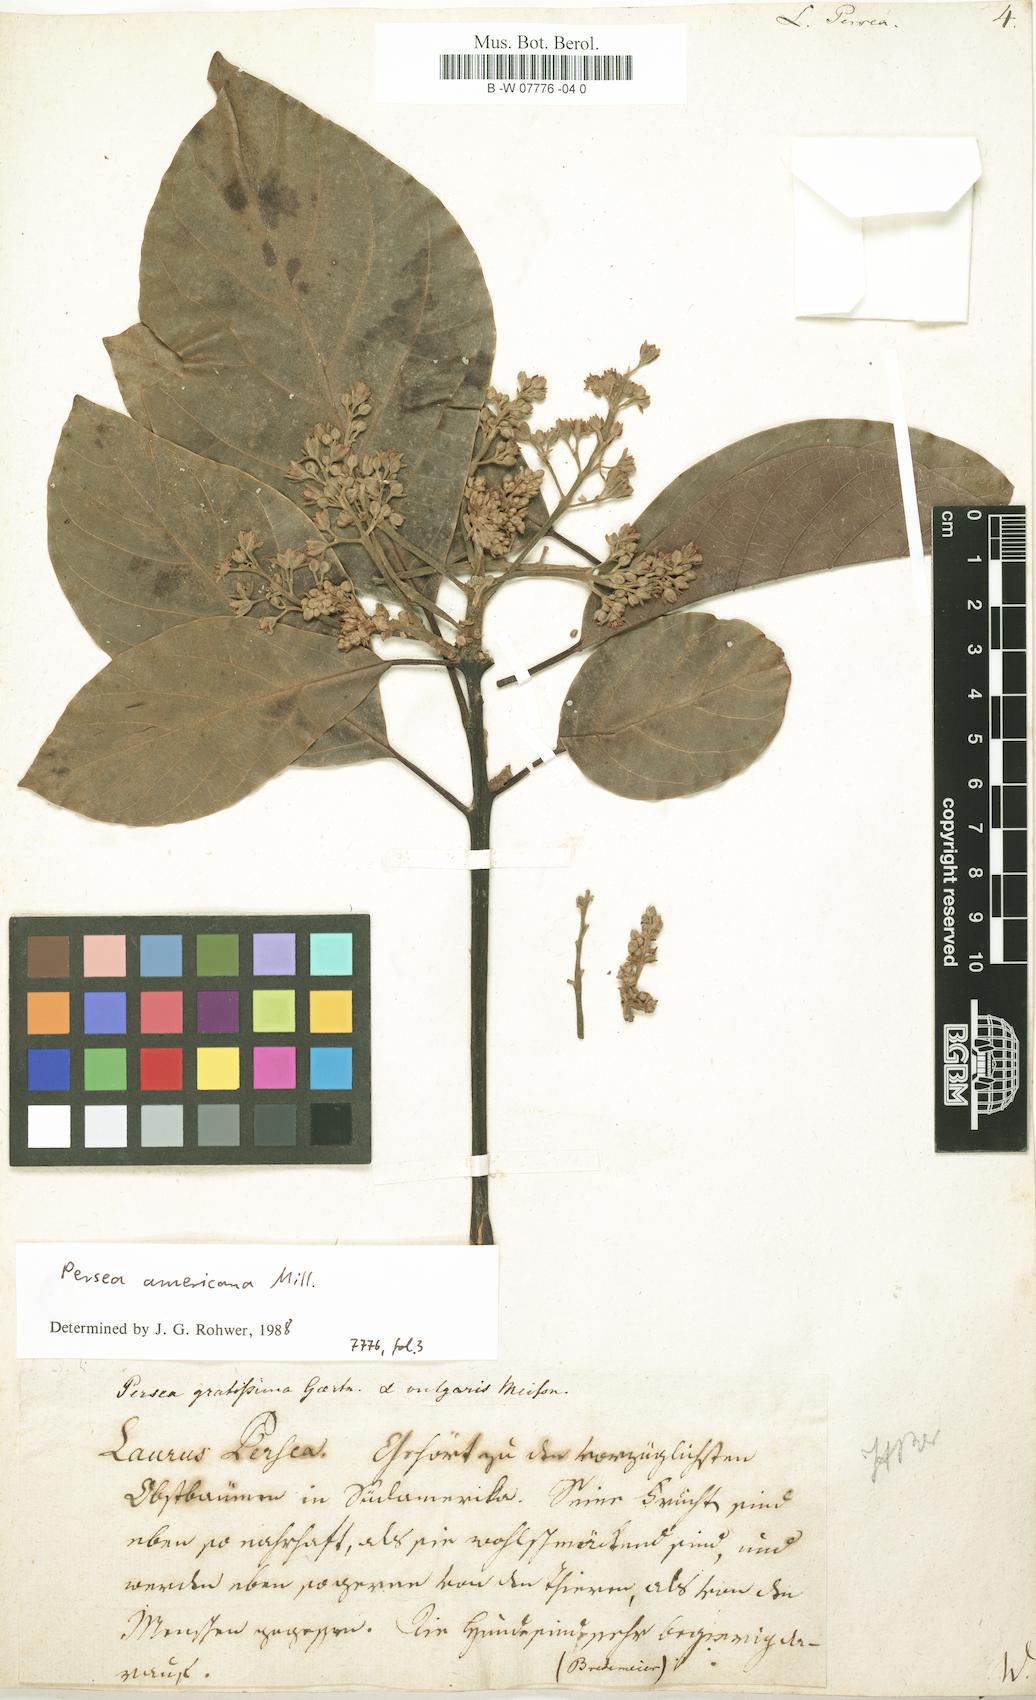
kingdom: Plantae
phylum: Tracheophyta
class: Magnoliopsida
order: Laurales
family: Lauraceae
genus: Persea
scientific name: Persea americana
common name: Avocado
